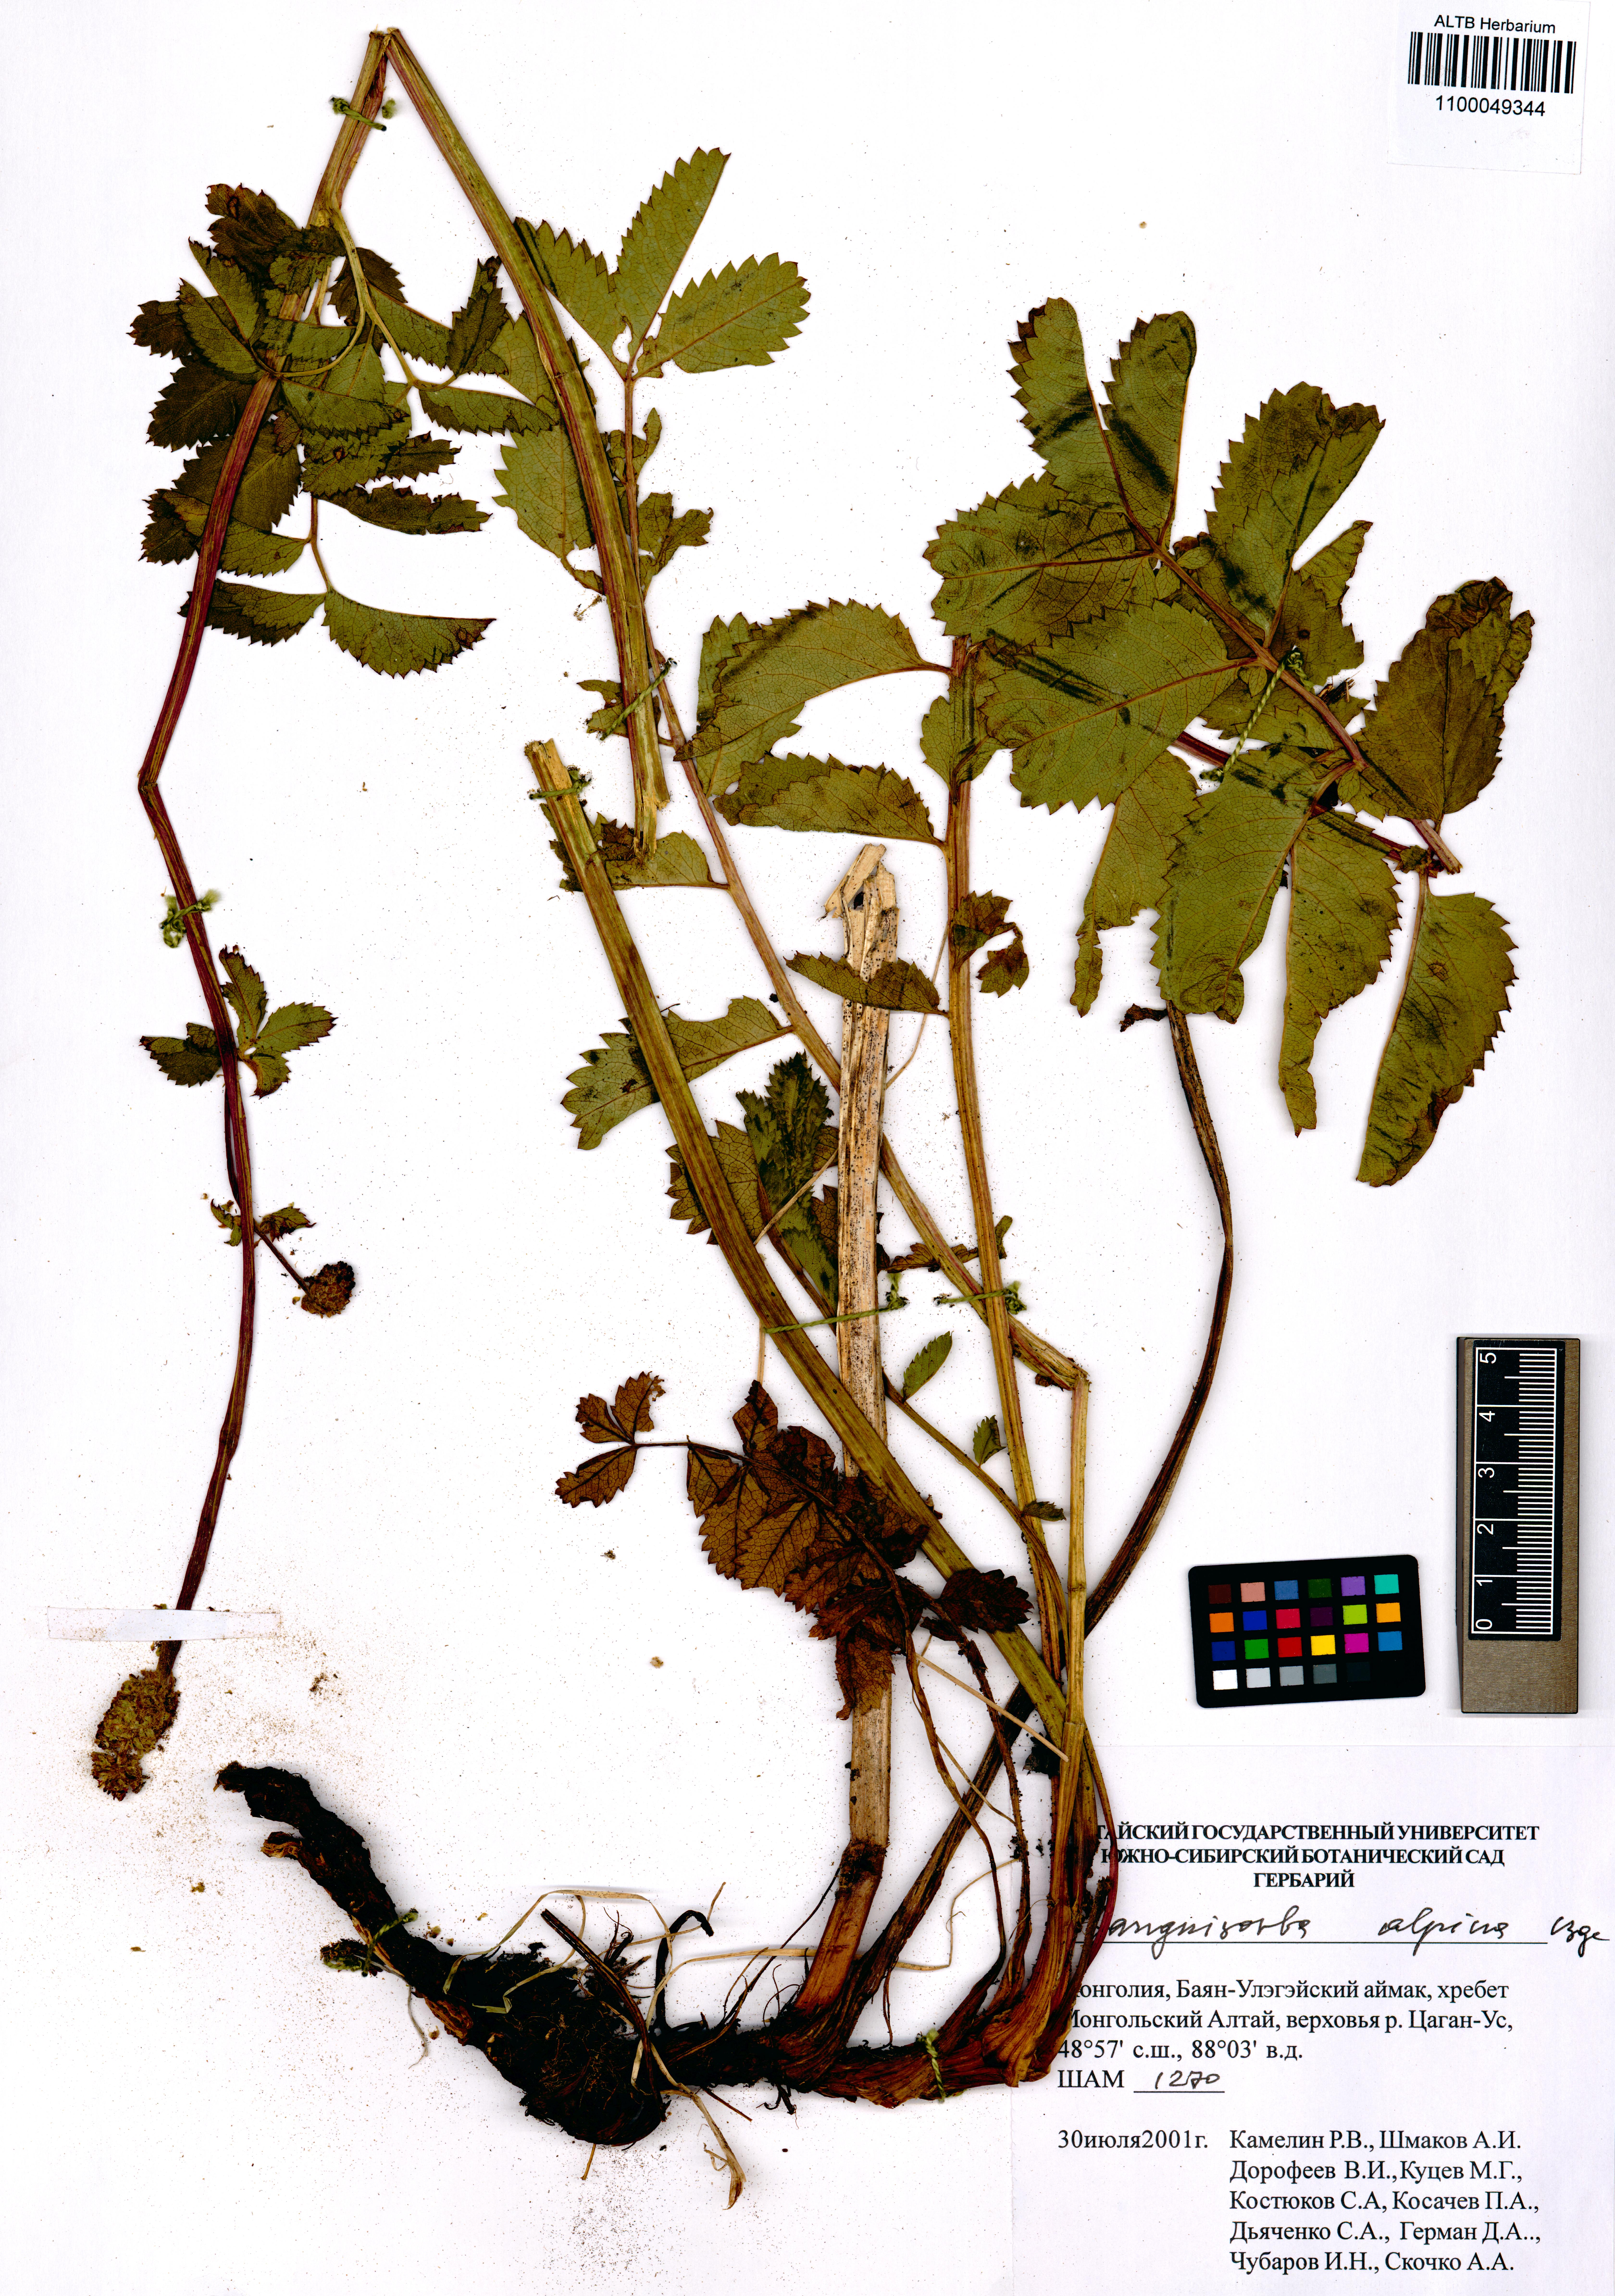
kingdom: Plantae
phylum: Tracheophyta
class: Magnoliopsida
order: Rosales
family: Rosaceae
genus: Sanguisorba
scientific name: Sanguisorba alpina
